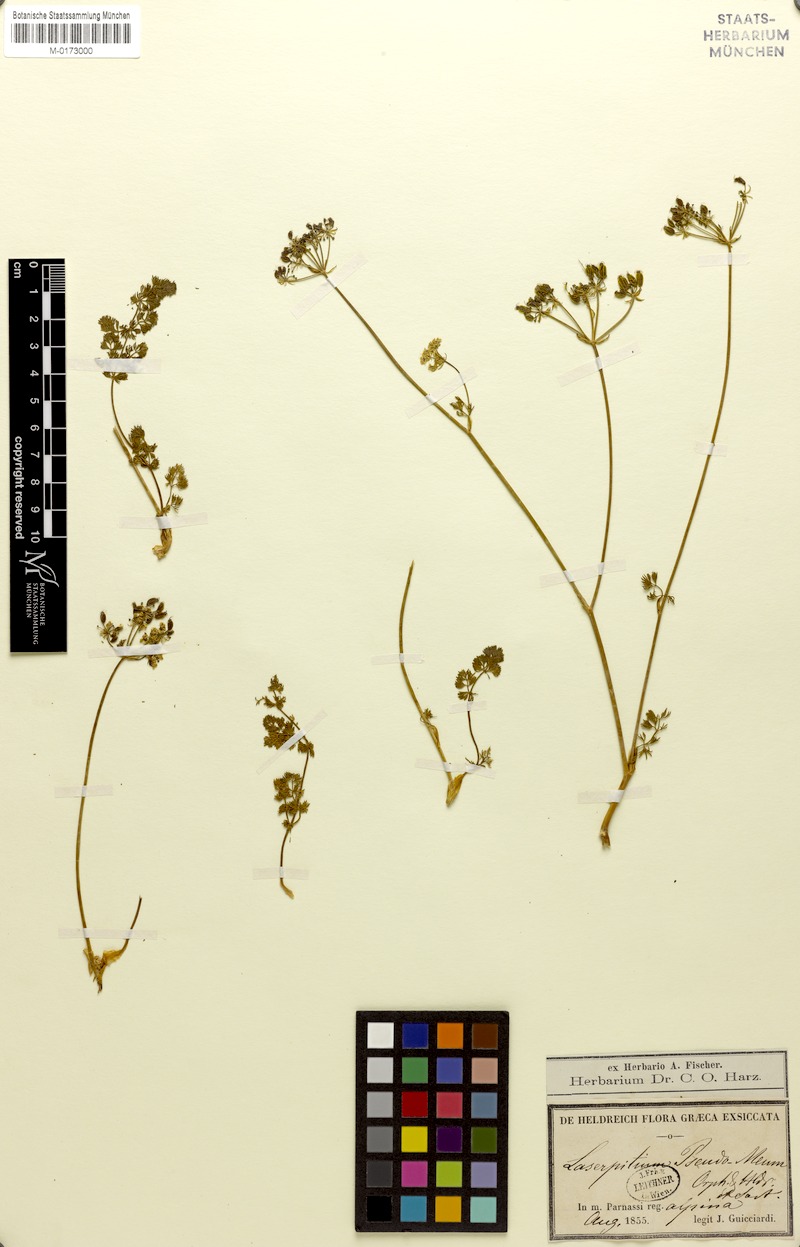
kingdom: Plantae
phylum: Tracheophyta
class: Magnoliopsida
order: Apiales
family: Apiaceae
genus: Laserocarpum
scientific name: Laserocarpum pseudomeum
